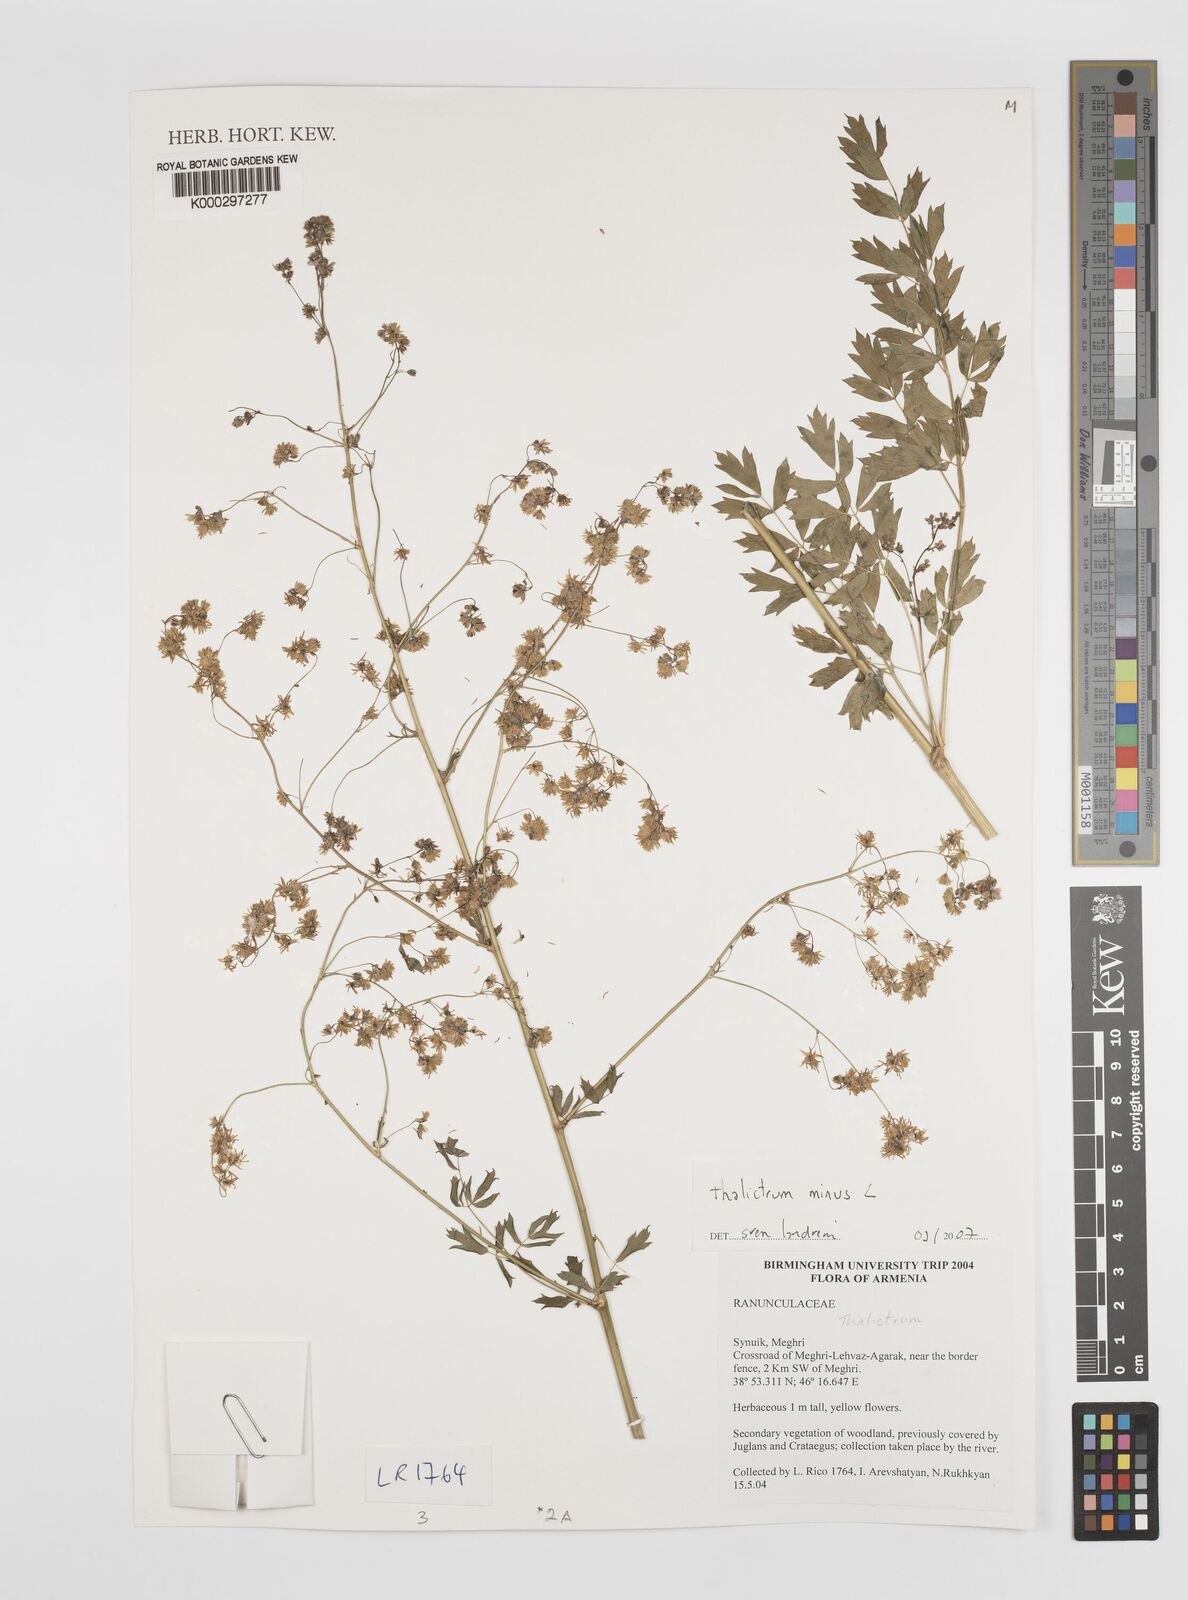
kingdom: Plantae
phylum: Tracheophyta
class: Magnoliopsida
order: Ranunculales
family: Ranunculaceae
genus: Thalictrum
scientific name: Thalictrum minus
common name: Lesser meadow-rue
